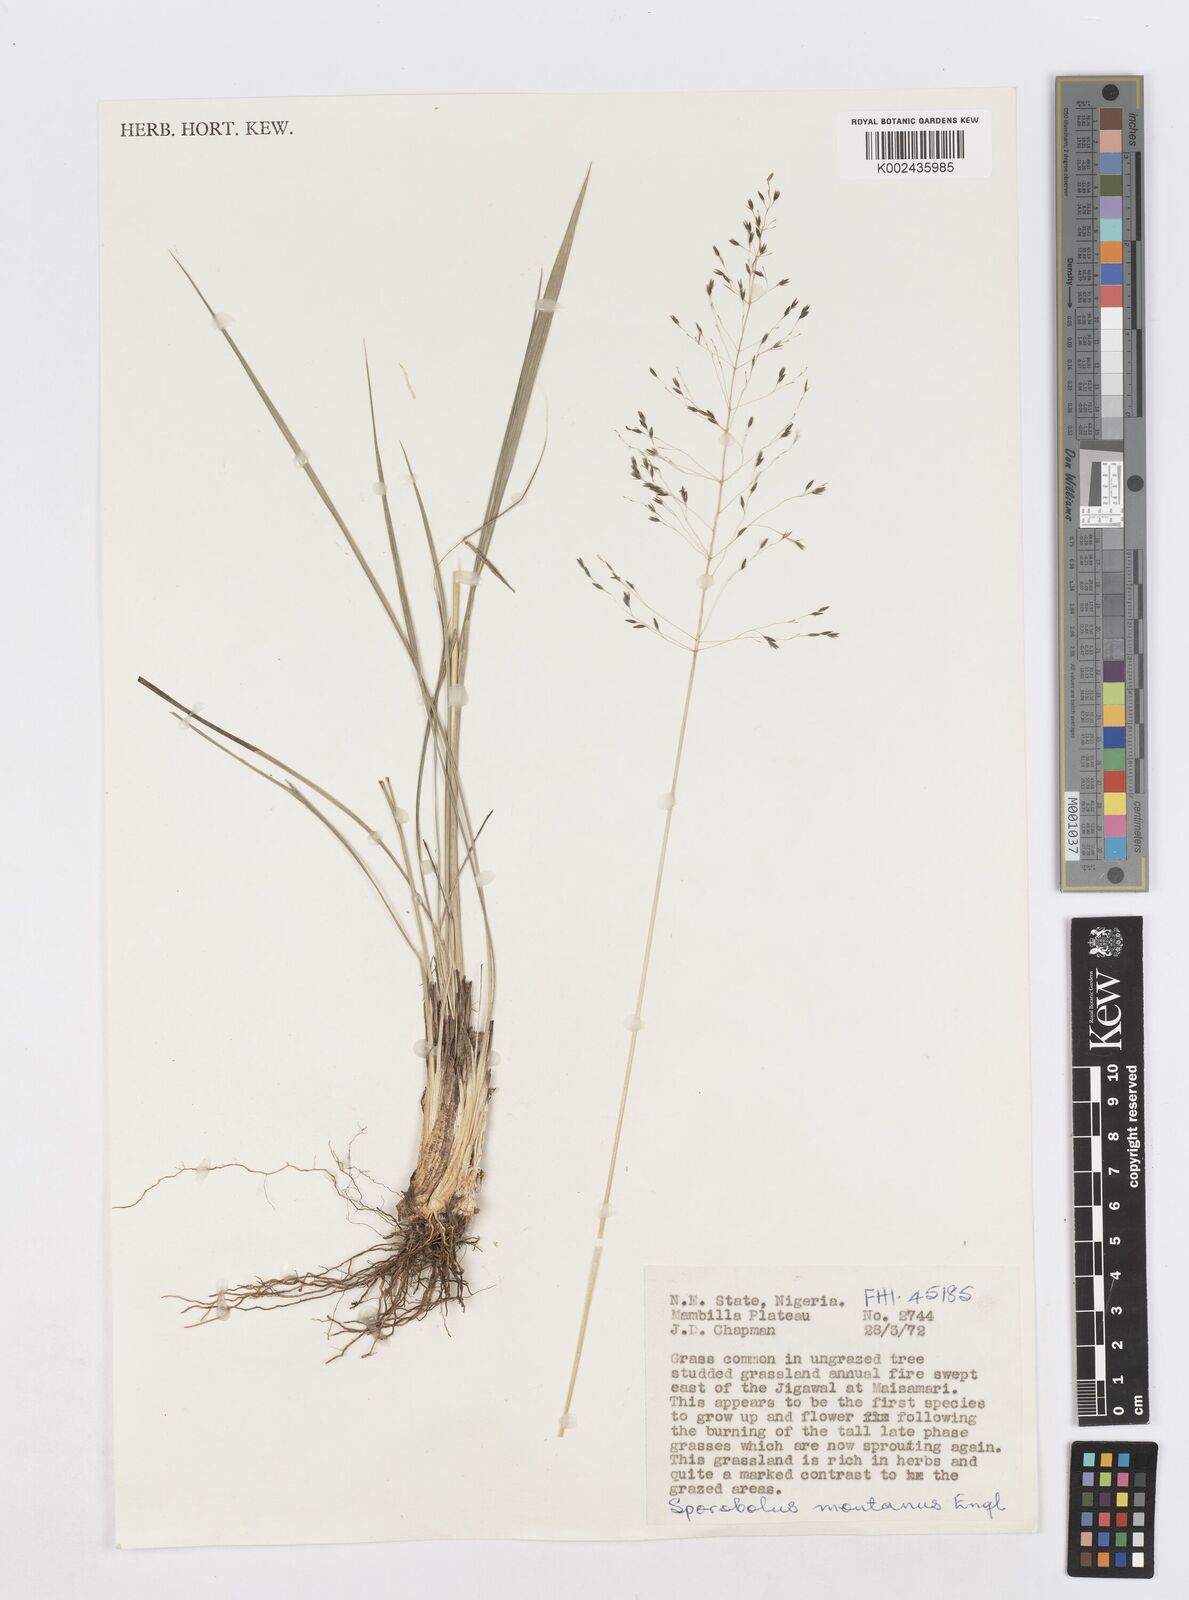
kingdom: Plantae
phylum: Tracheophyta
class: Liliopsida
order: Poales
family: Poaceae
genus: Sporobolus
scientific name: Sporobolus montanus
